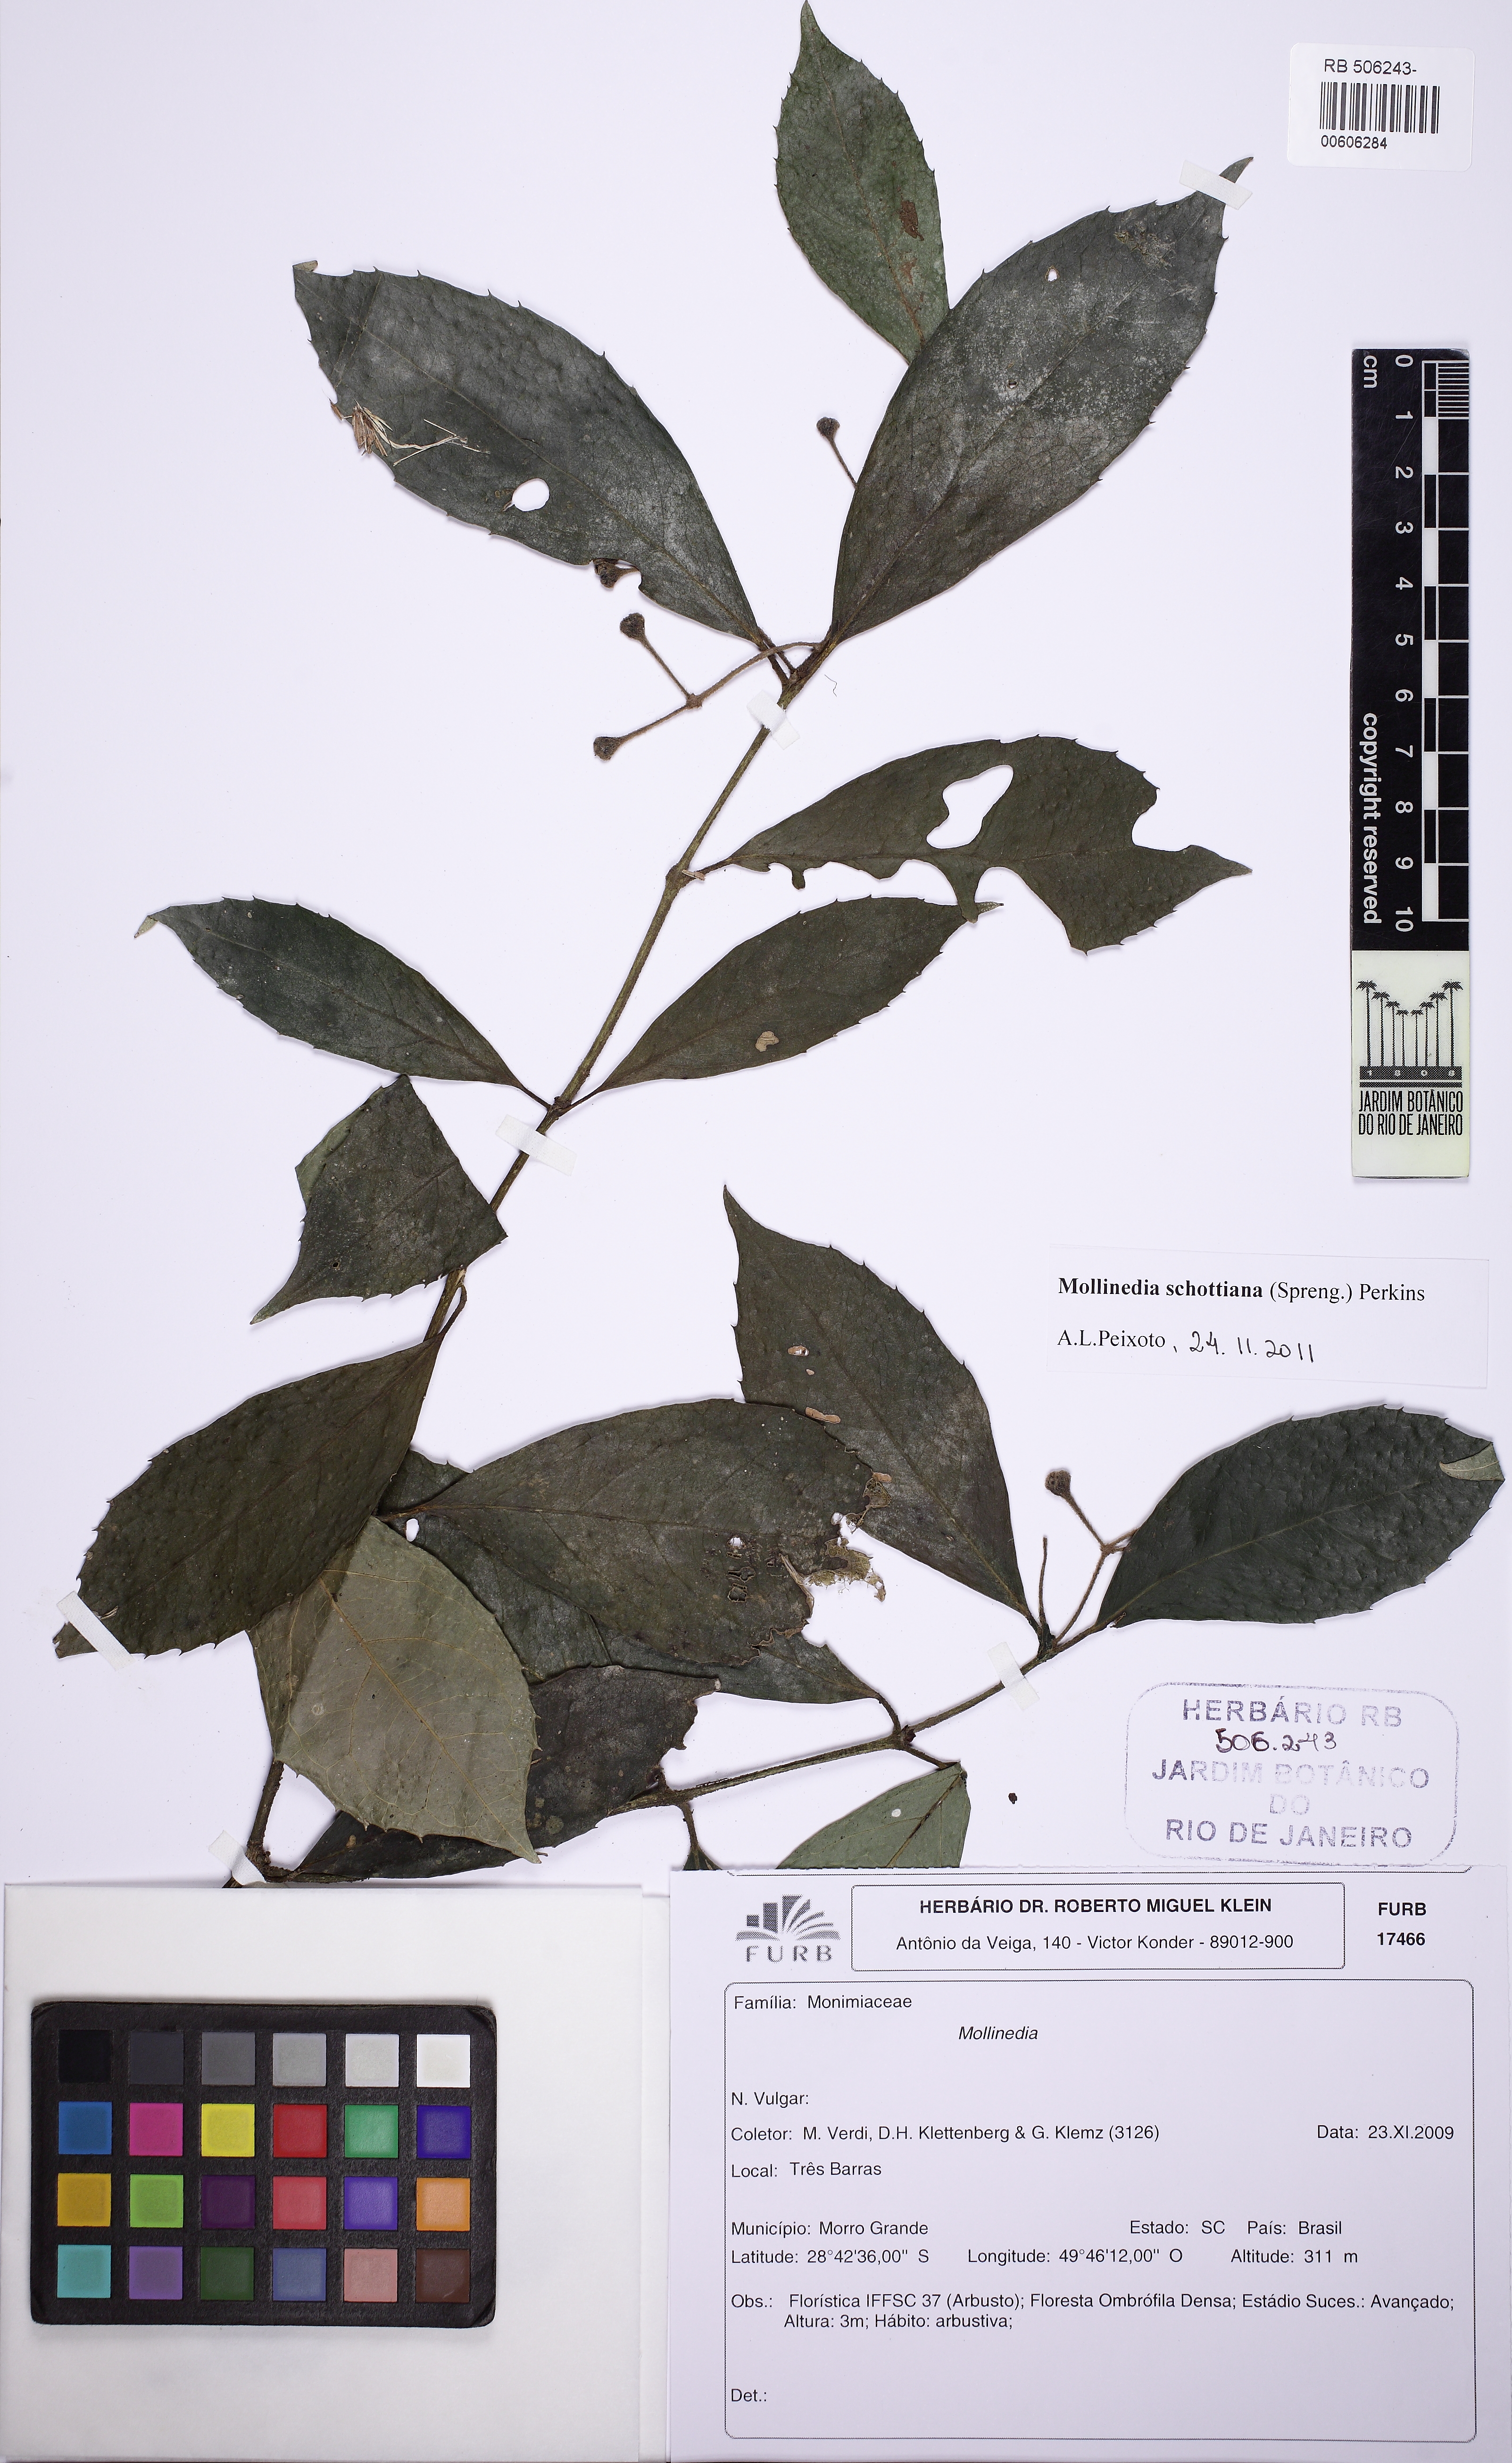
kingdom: Plantae
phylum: Tracheophyta
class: Magnoliopsida
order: Laurales
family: Monimiaceae
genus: Mollinedia
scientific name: Mollinedia umbellata
